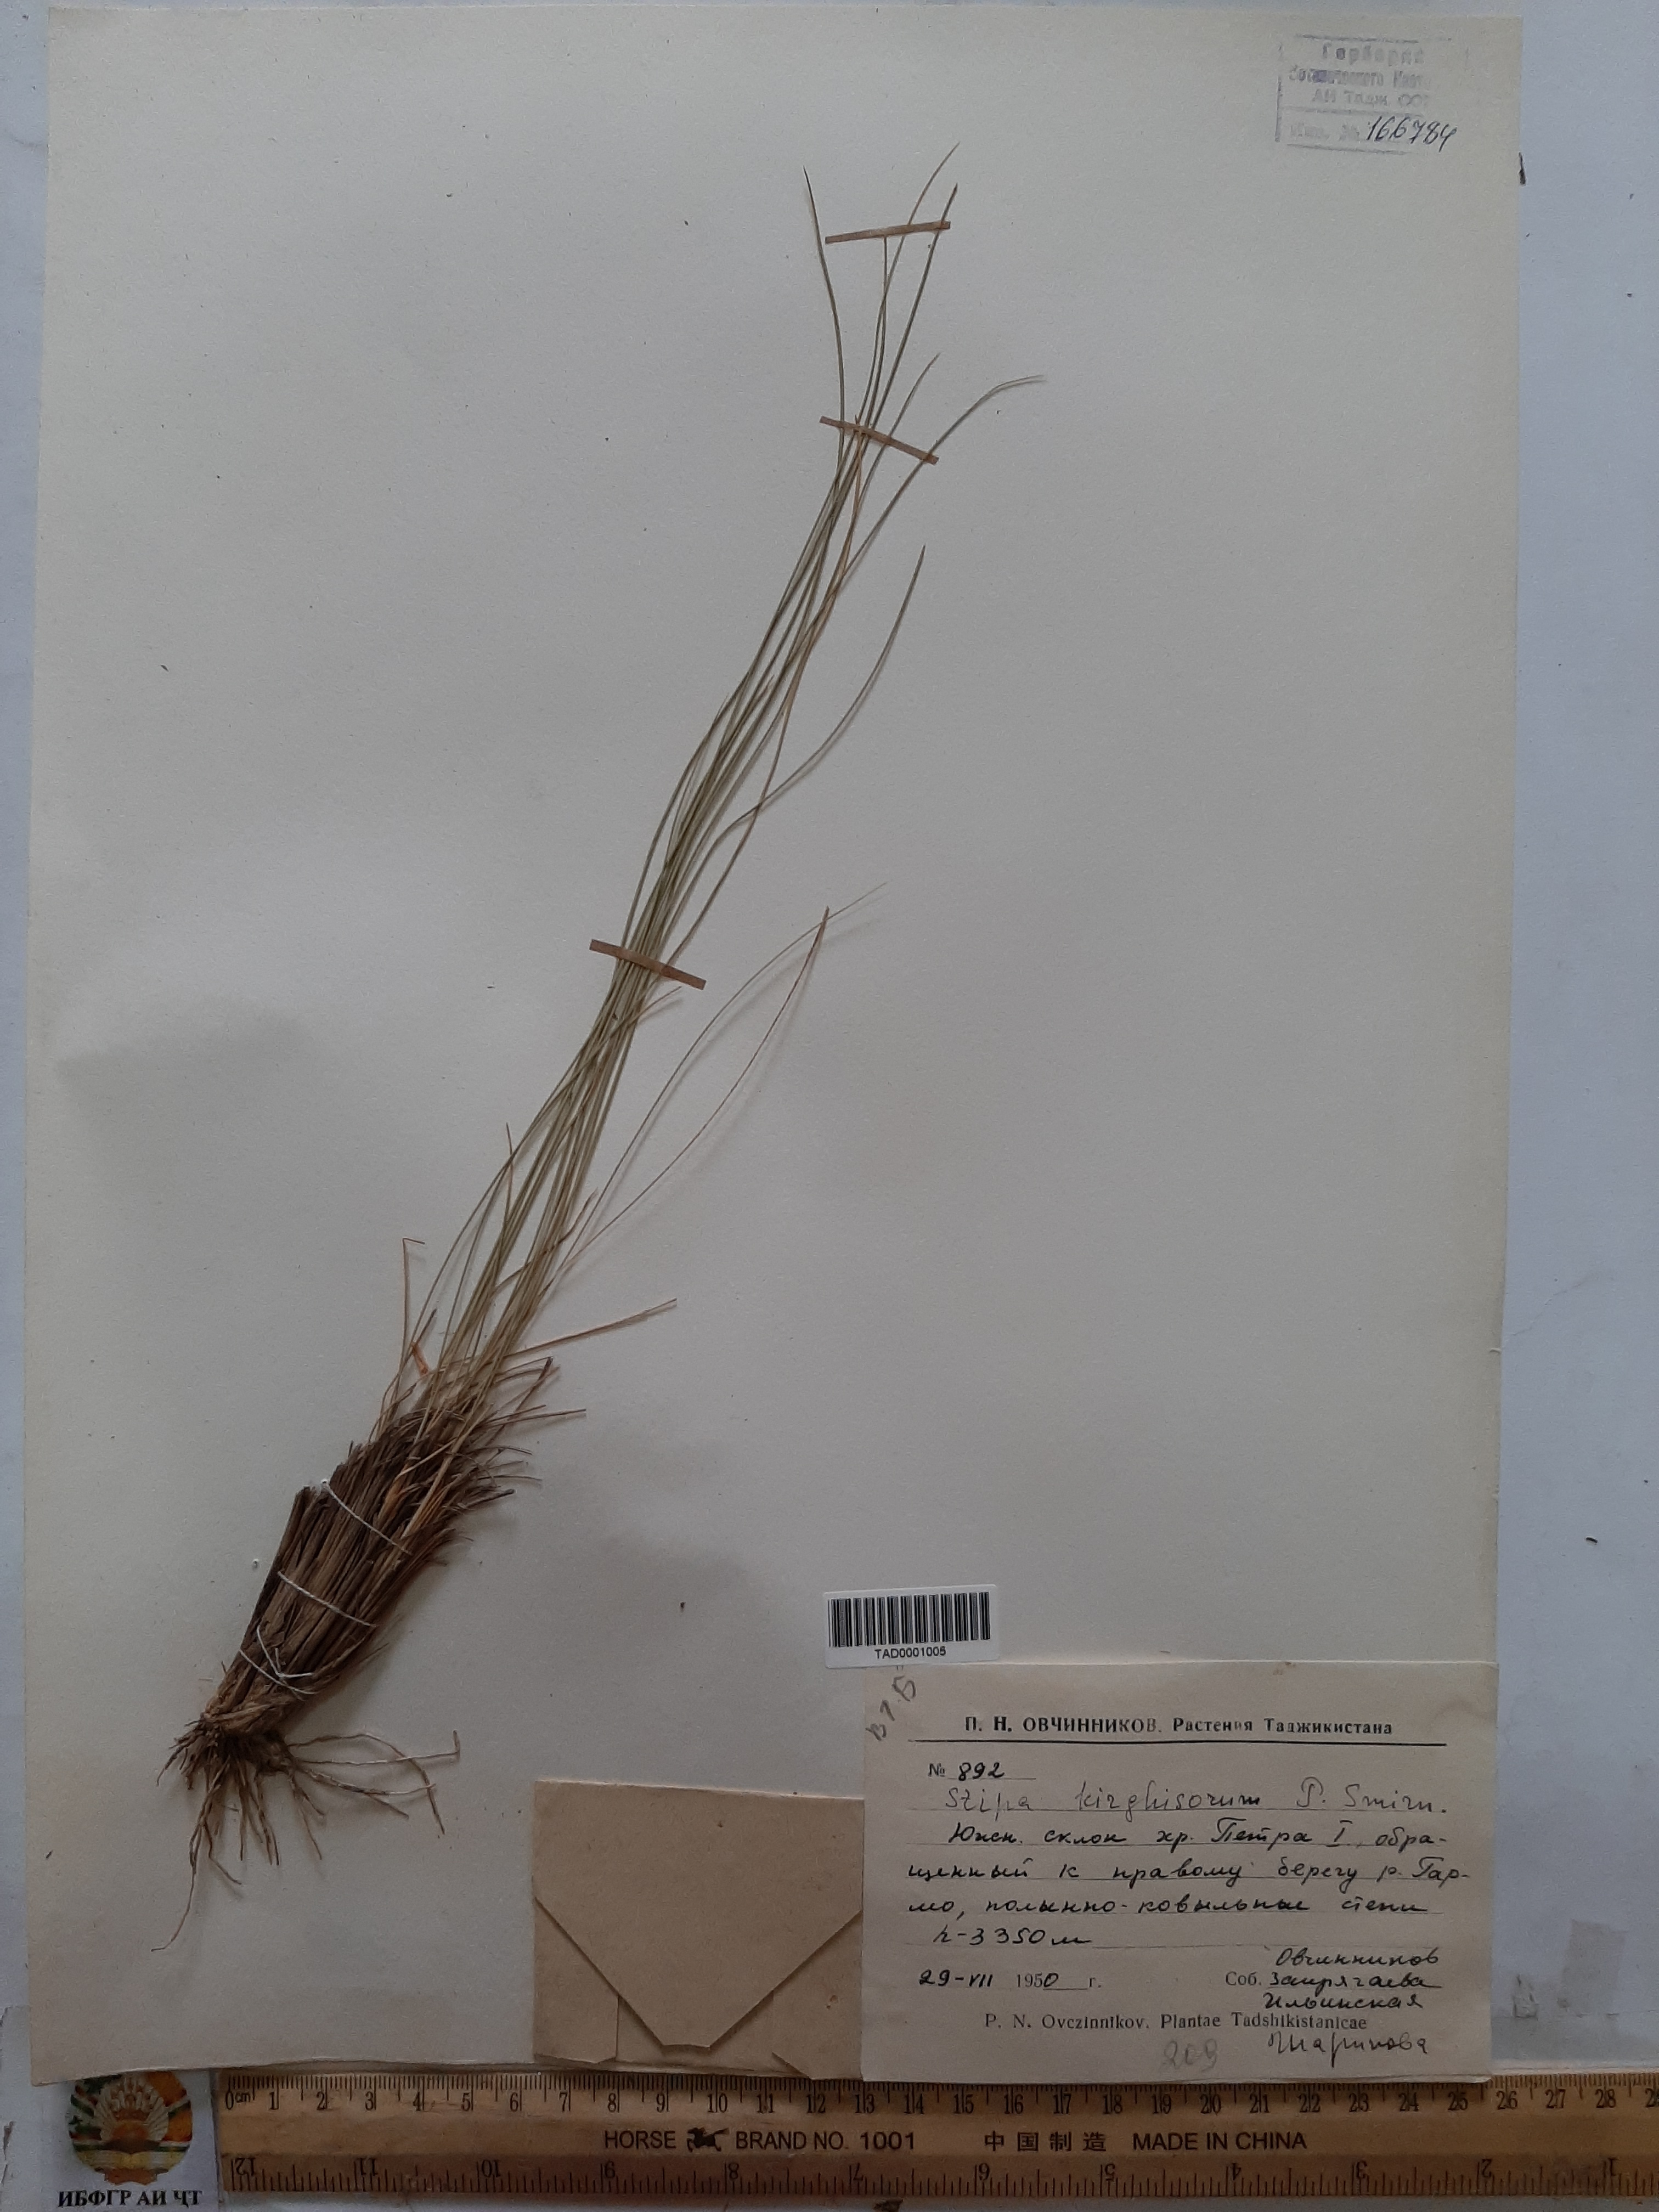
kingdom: Plantae
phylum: Tracheophyta
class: Liliopsida
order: Poales
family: Poaceae
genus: Stipa
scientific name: Stipa kirghisorum
